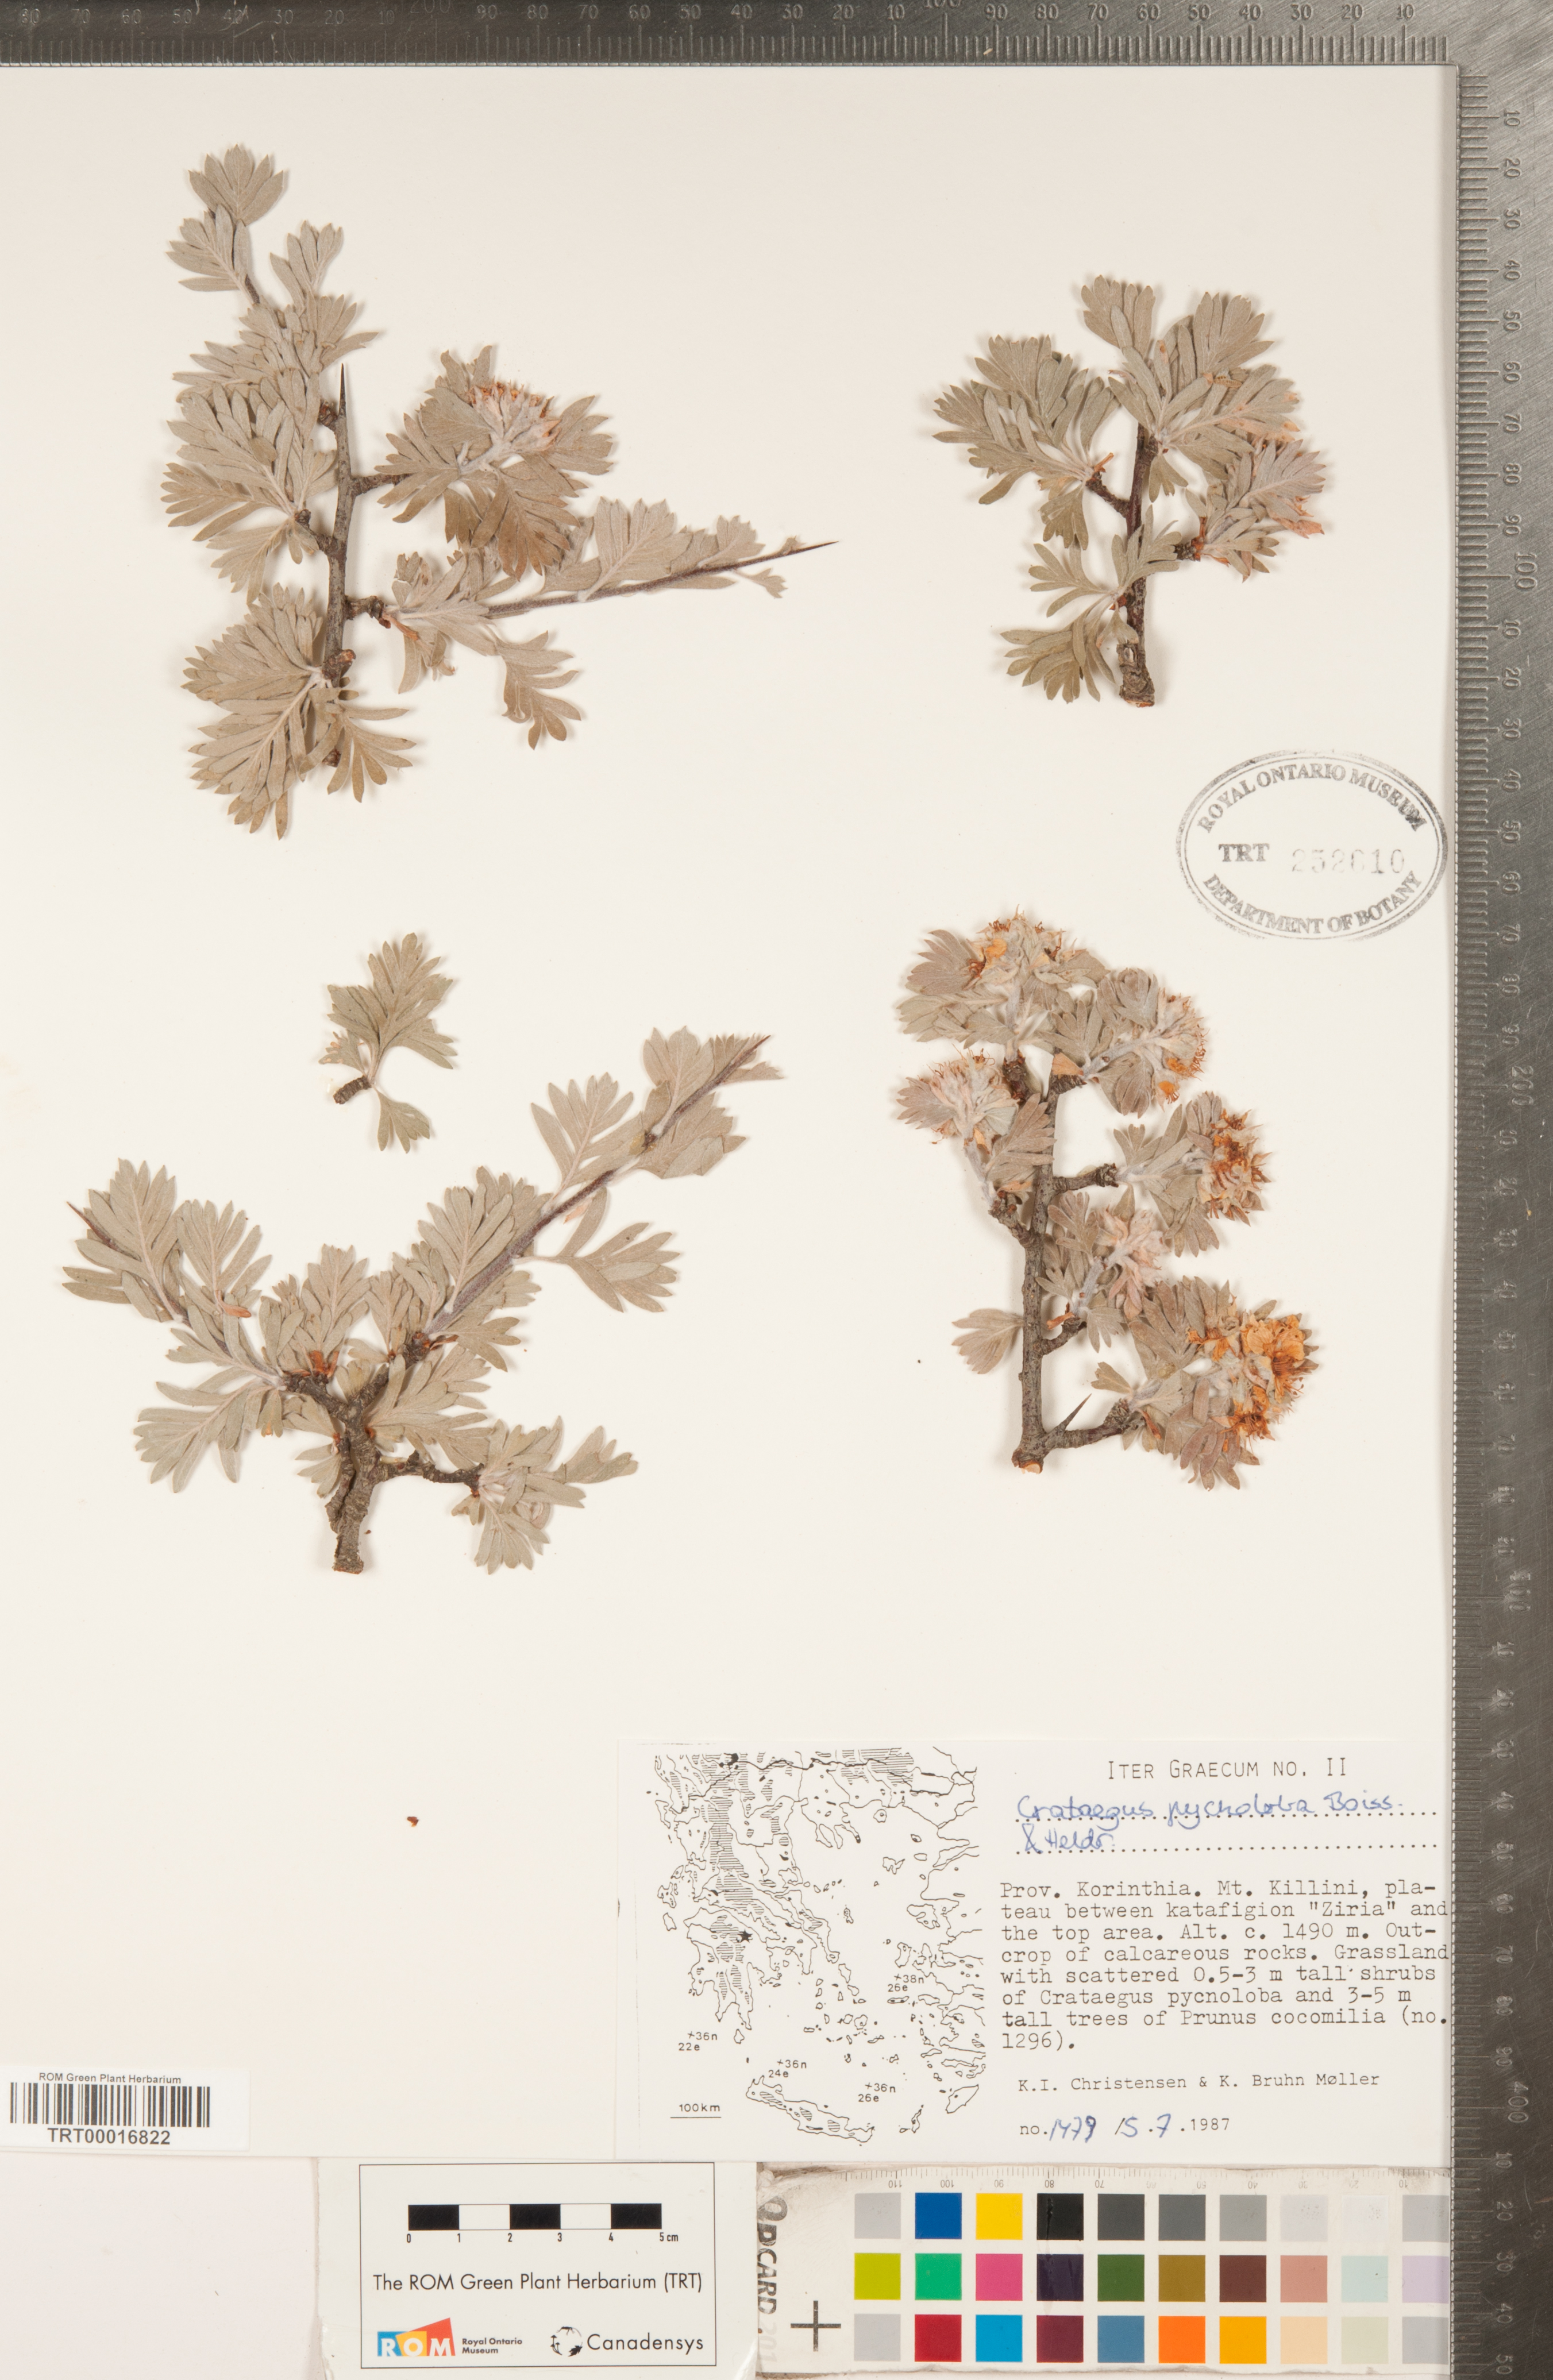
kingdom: Plantae
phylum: Tracheophyta
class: Magnoliopsida
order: Rosales
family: Rosaceae
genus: Crataegus
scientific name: Crataegus pycnoloba
